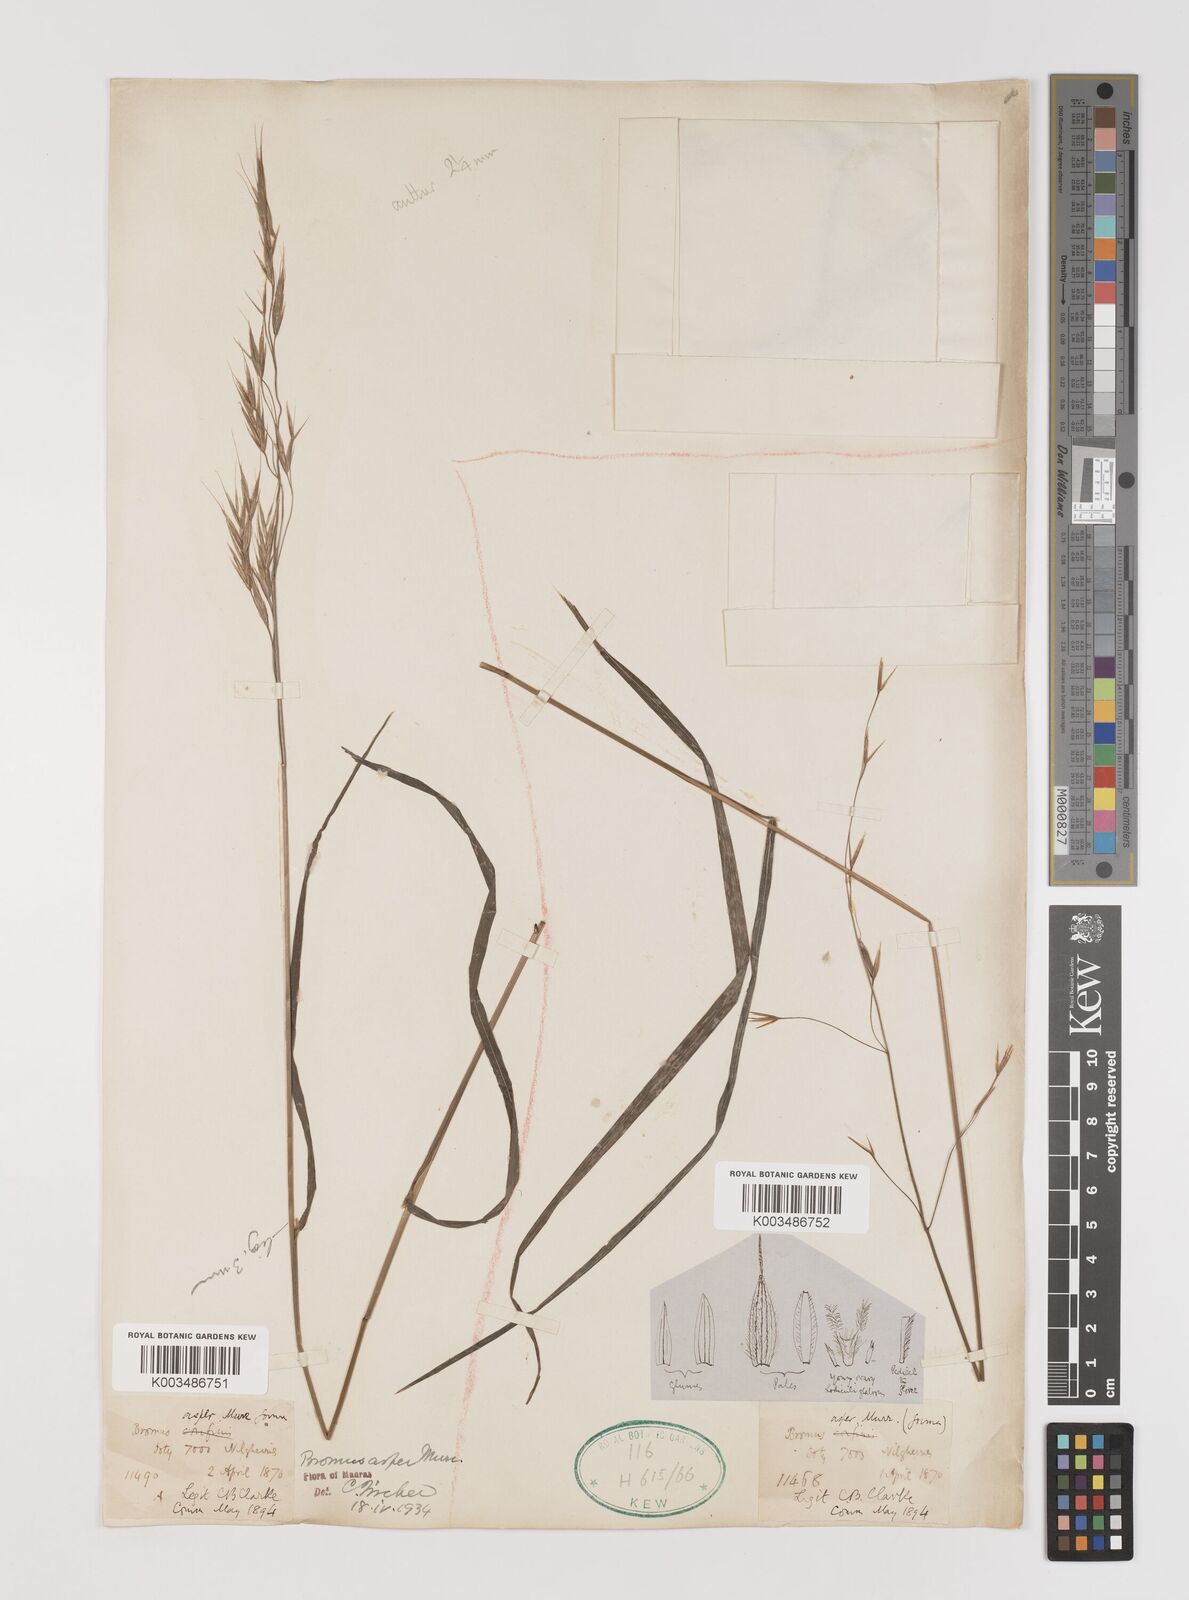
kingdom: Plantae
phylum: Tracheophyta
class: Liliopsida
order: Poales
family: Poaceae
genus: Brachypodium
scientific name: Brachypodium retusum
